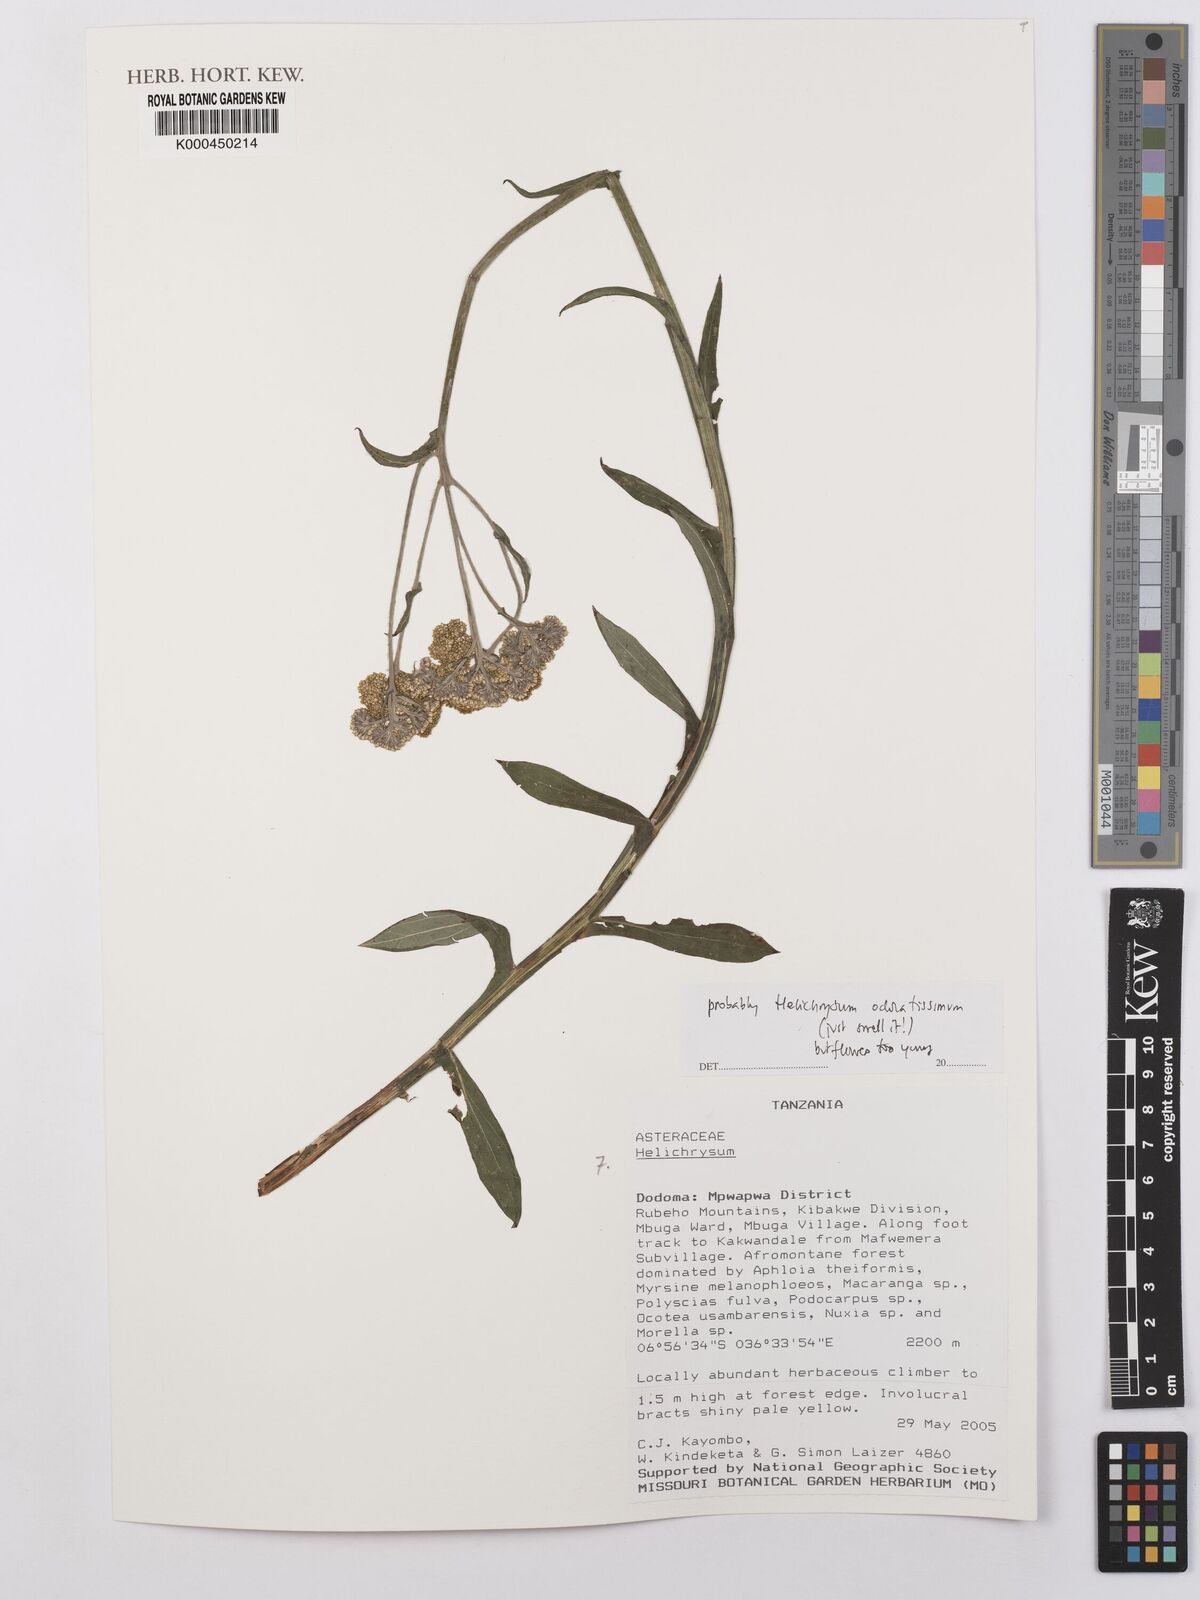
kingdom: Plantae
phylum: Tracheophyta
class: Magnoliopsida
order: Asterales
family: Asteraceae
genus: Helichrysum
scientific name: Helichrysum odoratissimum
